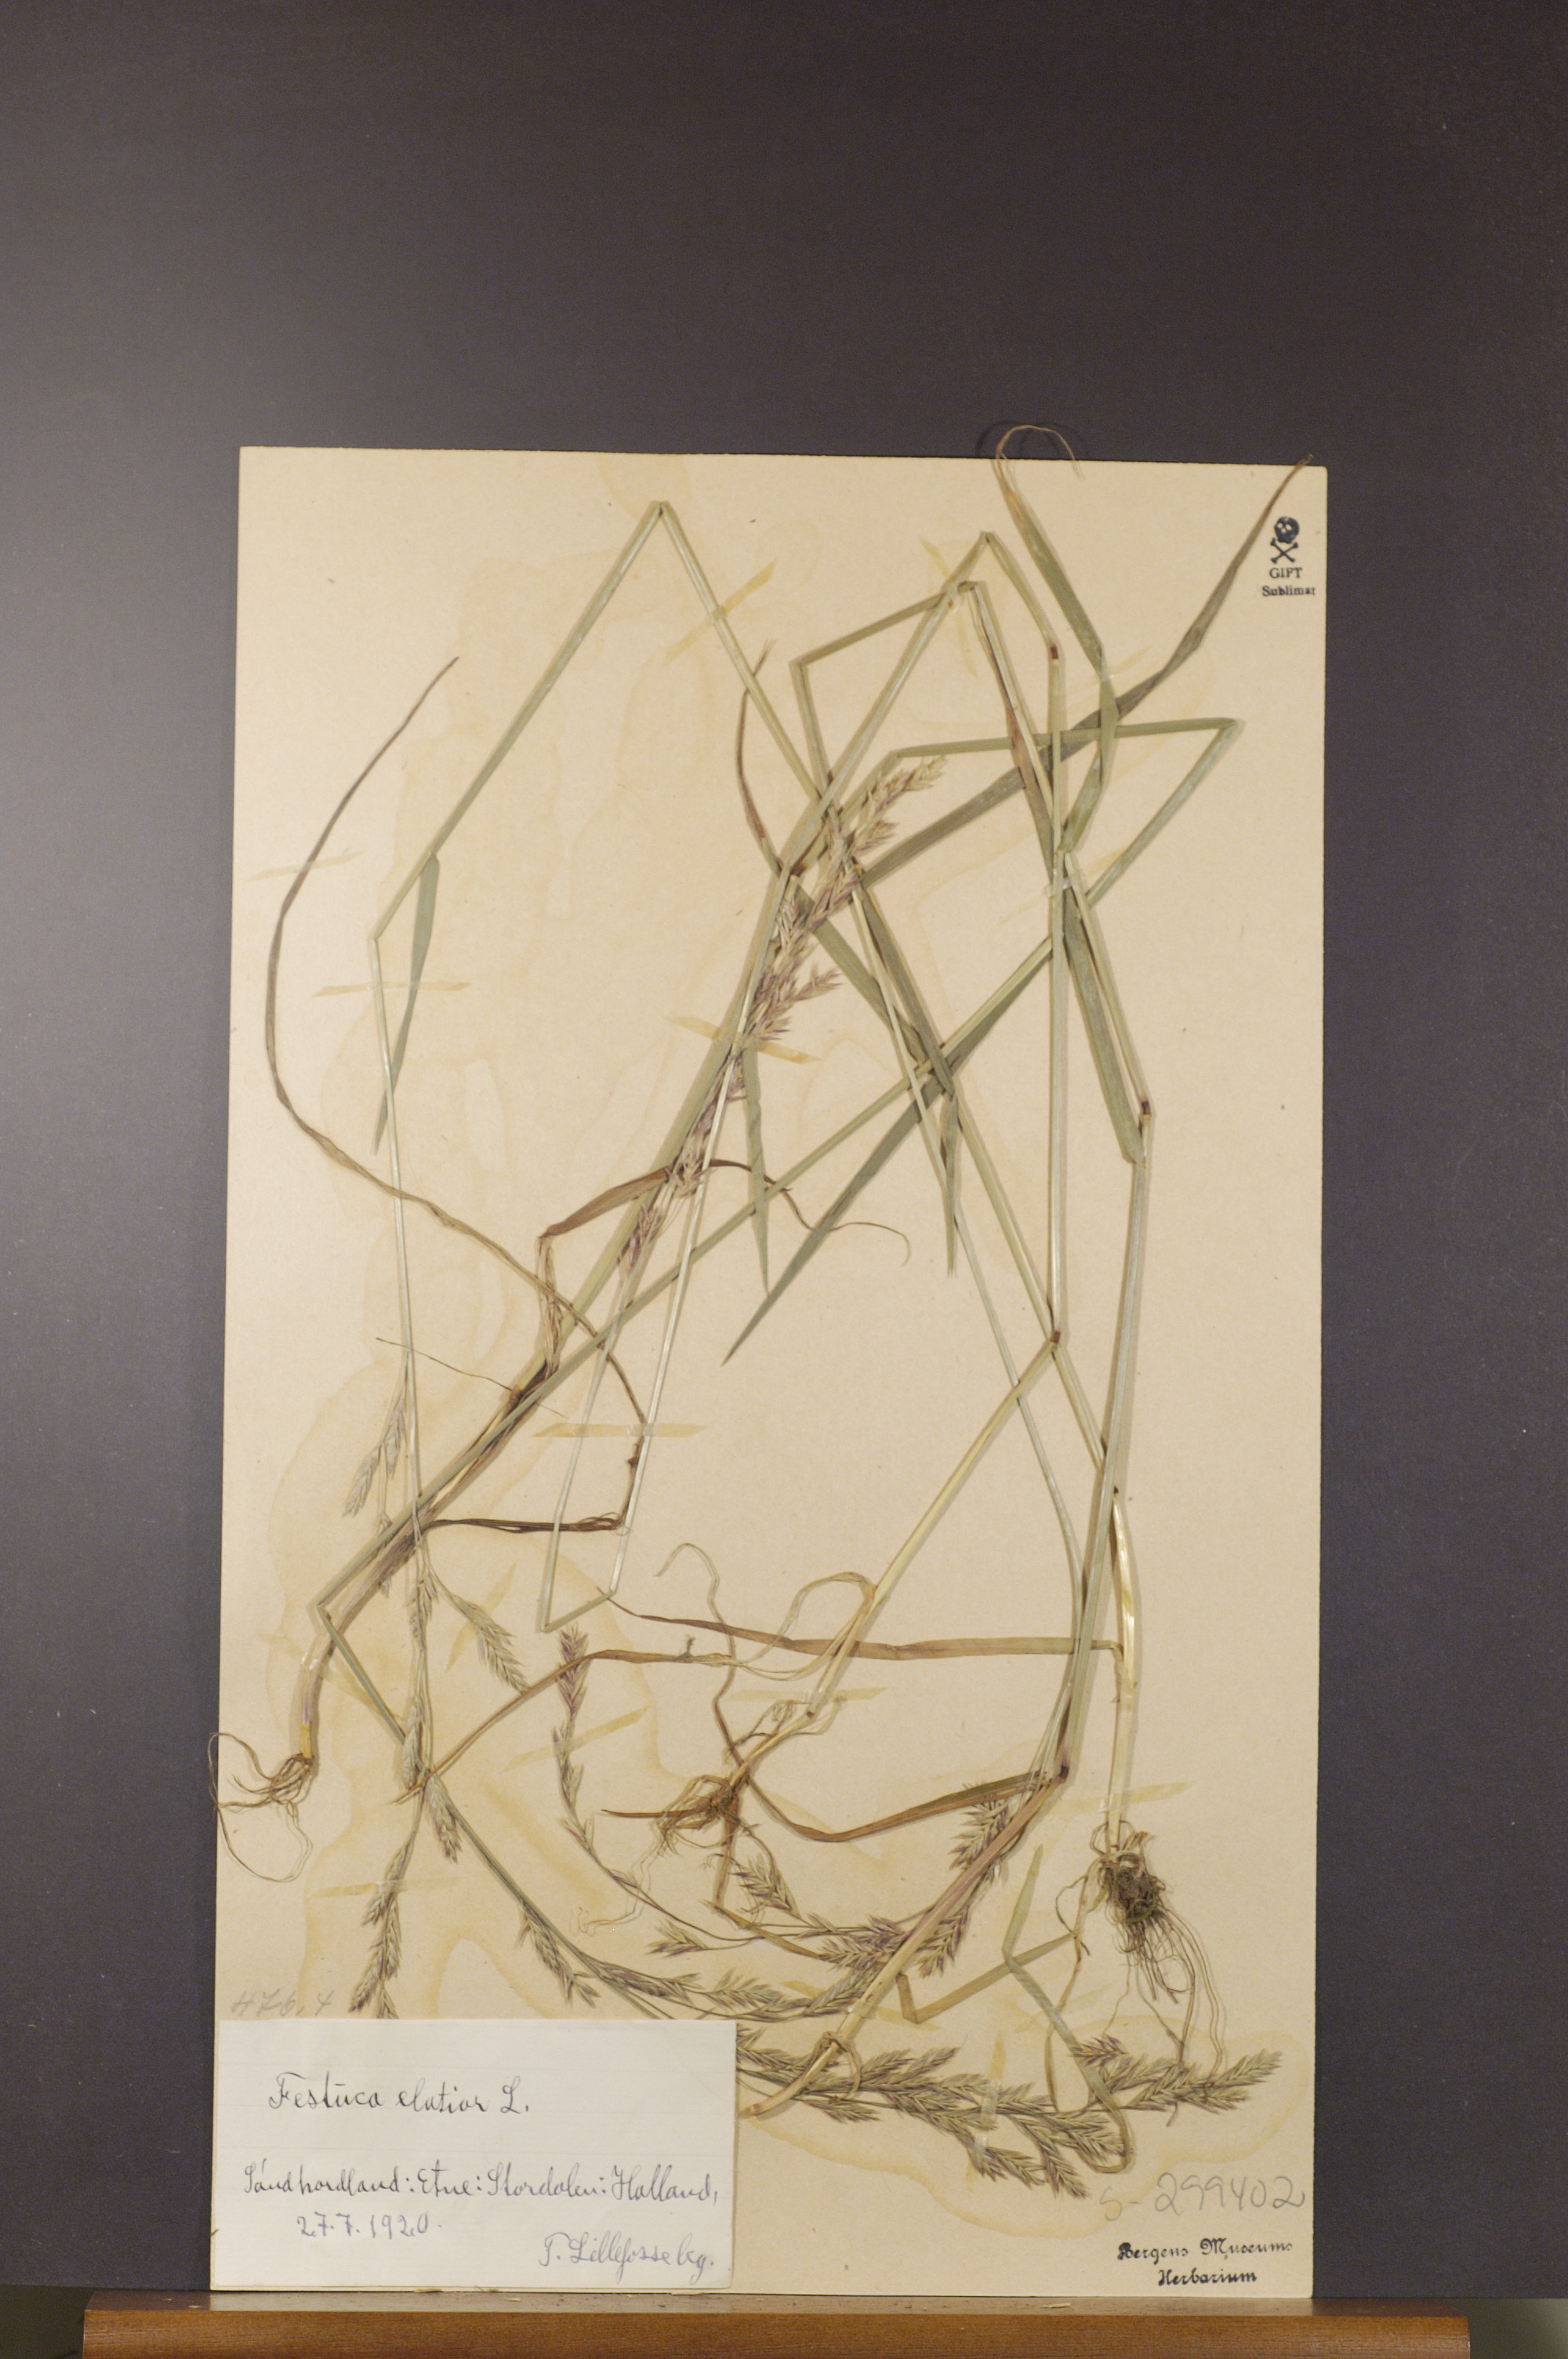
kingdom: Plantae
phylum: Tracheophyta
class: Liliopsida
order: Poales
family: Poaceae
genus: Lolium
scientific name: Lolium arundinaceum
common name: Reed fescue
